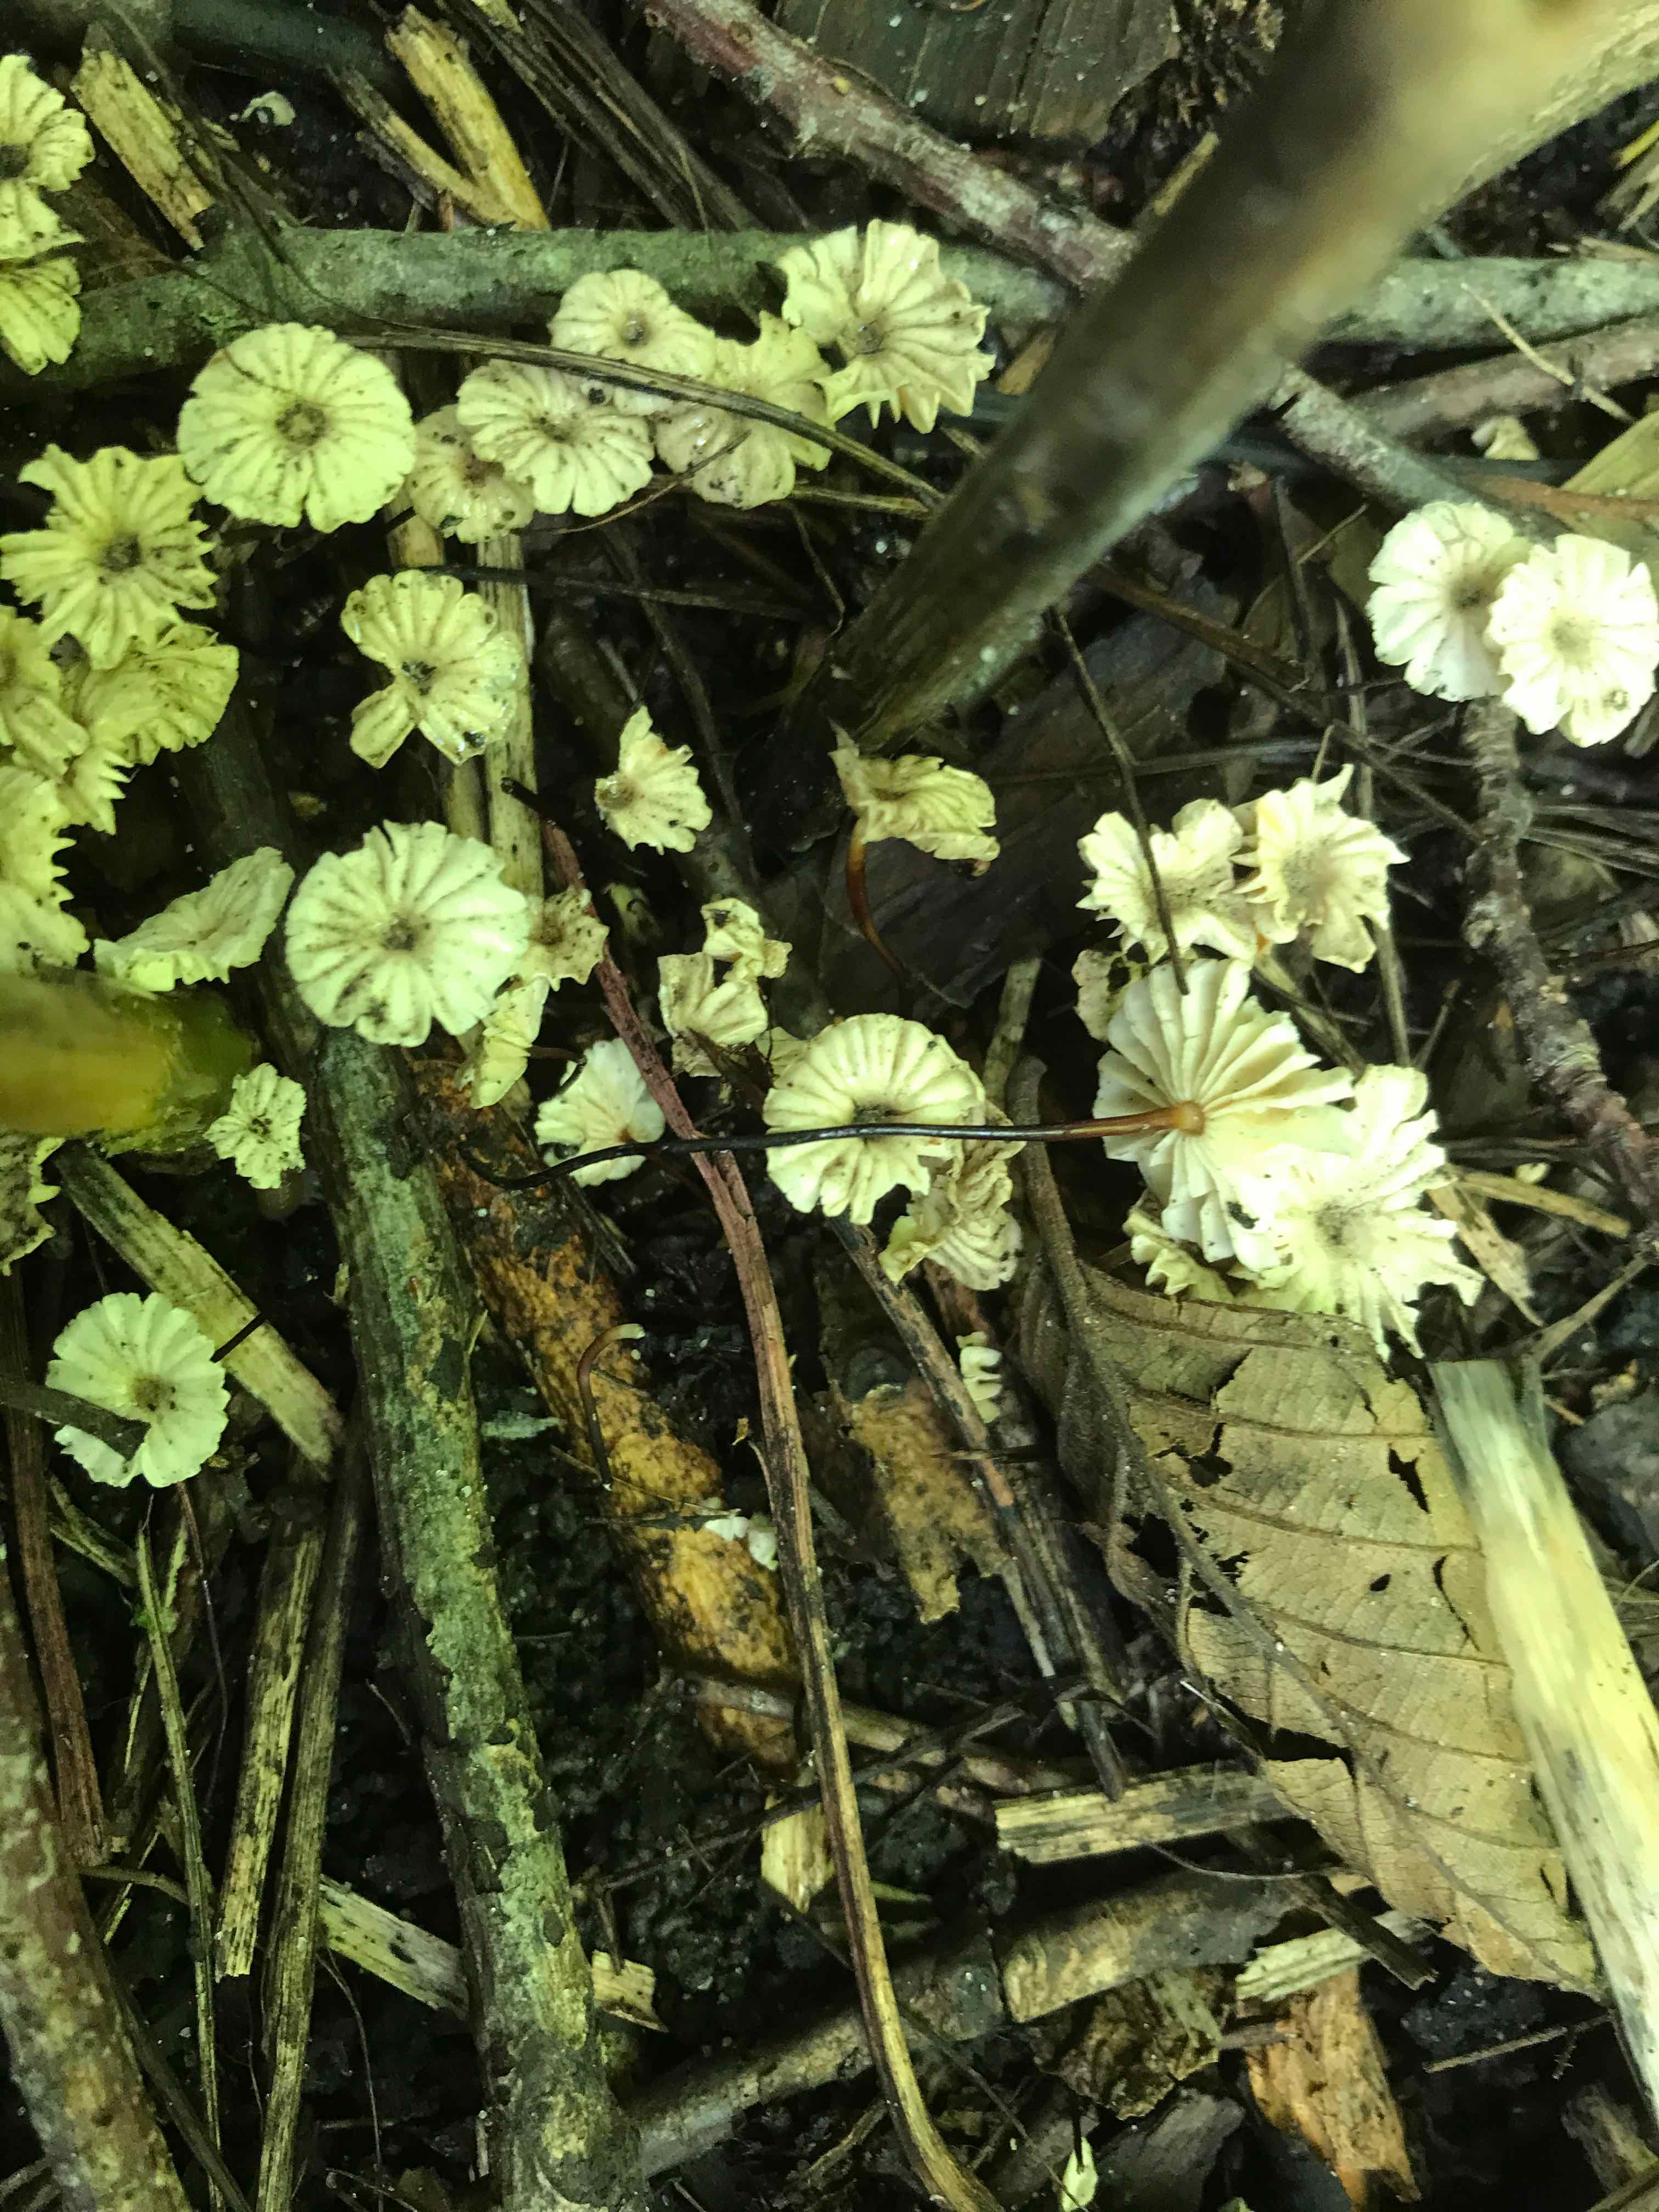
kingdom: Fungi
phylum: Basidiomycota
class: Agaricomycetes
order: Agaricales
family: Marasmiaceae
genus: Marasmius
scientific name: Marasmius rotula
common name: hjul-bruskhat
